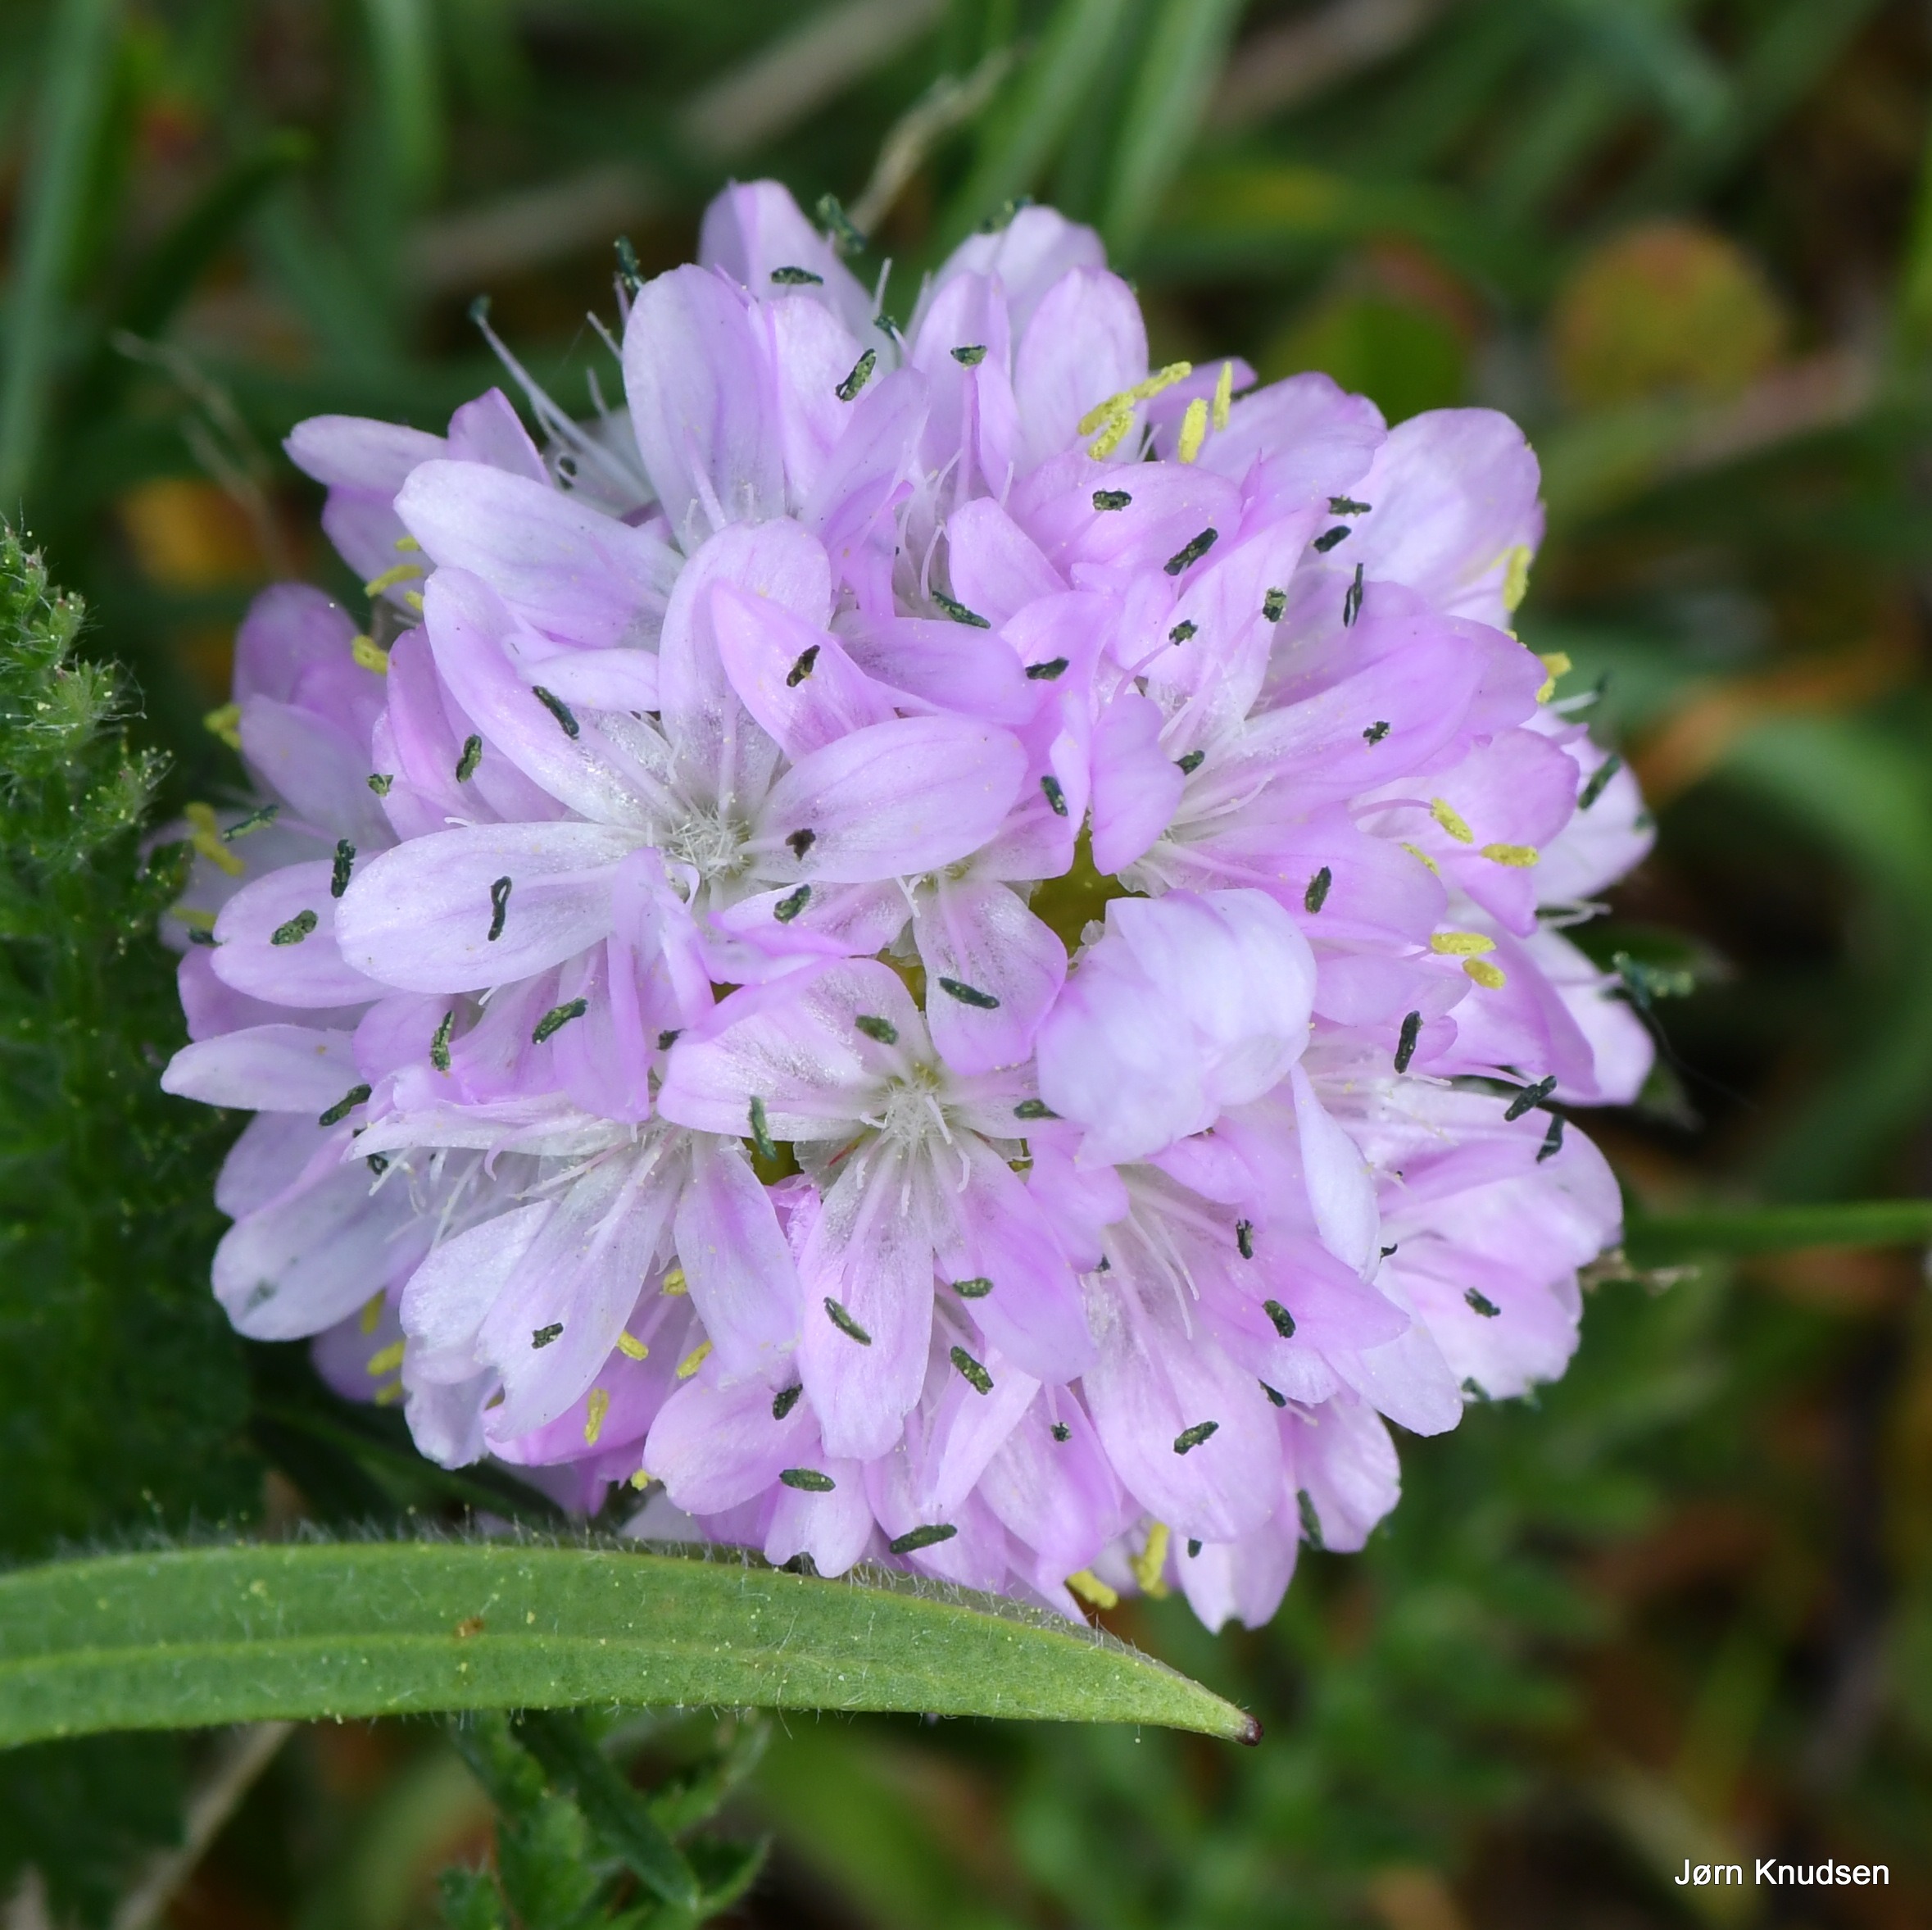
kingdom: Plantae
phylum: Tracheophyta
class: Magnoliopsida
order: Caryophyllales
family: Plumbaginaceae
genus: Armeria
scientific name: Armeria maritima
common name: Engelskgræs
